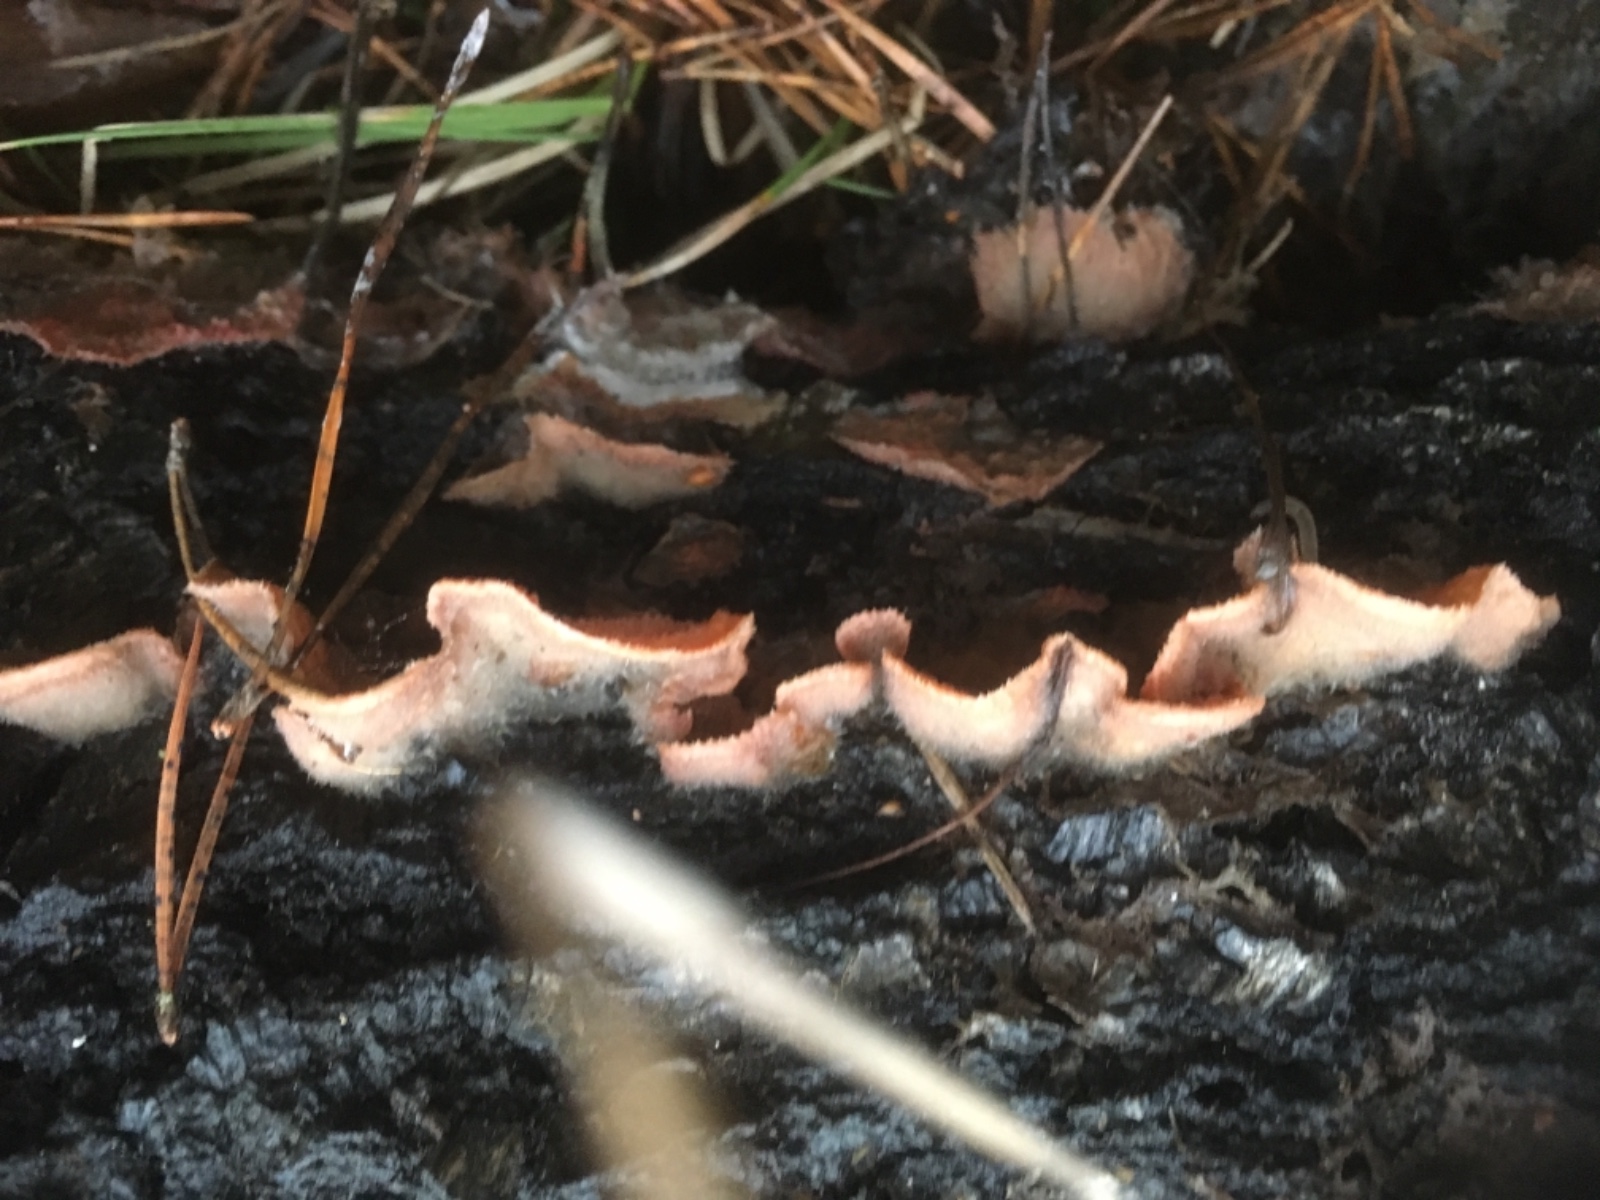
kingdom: Fungi
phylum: Basidiomycota
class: Agaricomycetes
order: Polyporales
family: Meruliaceae
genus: Phlebia
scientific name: Phlebia tremellosa
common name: bævrende åresvamp
